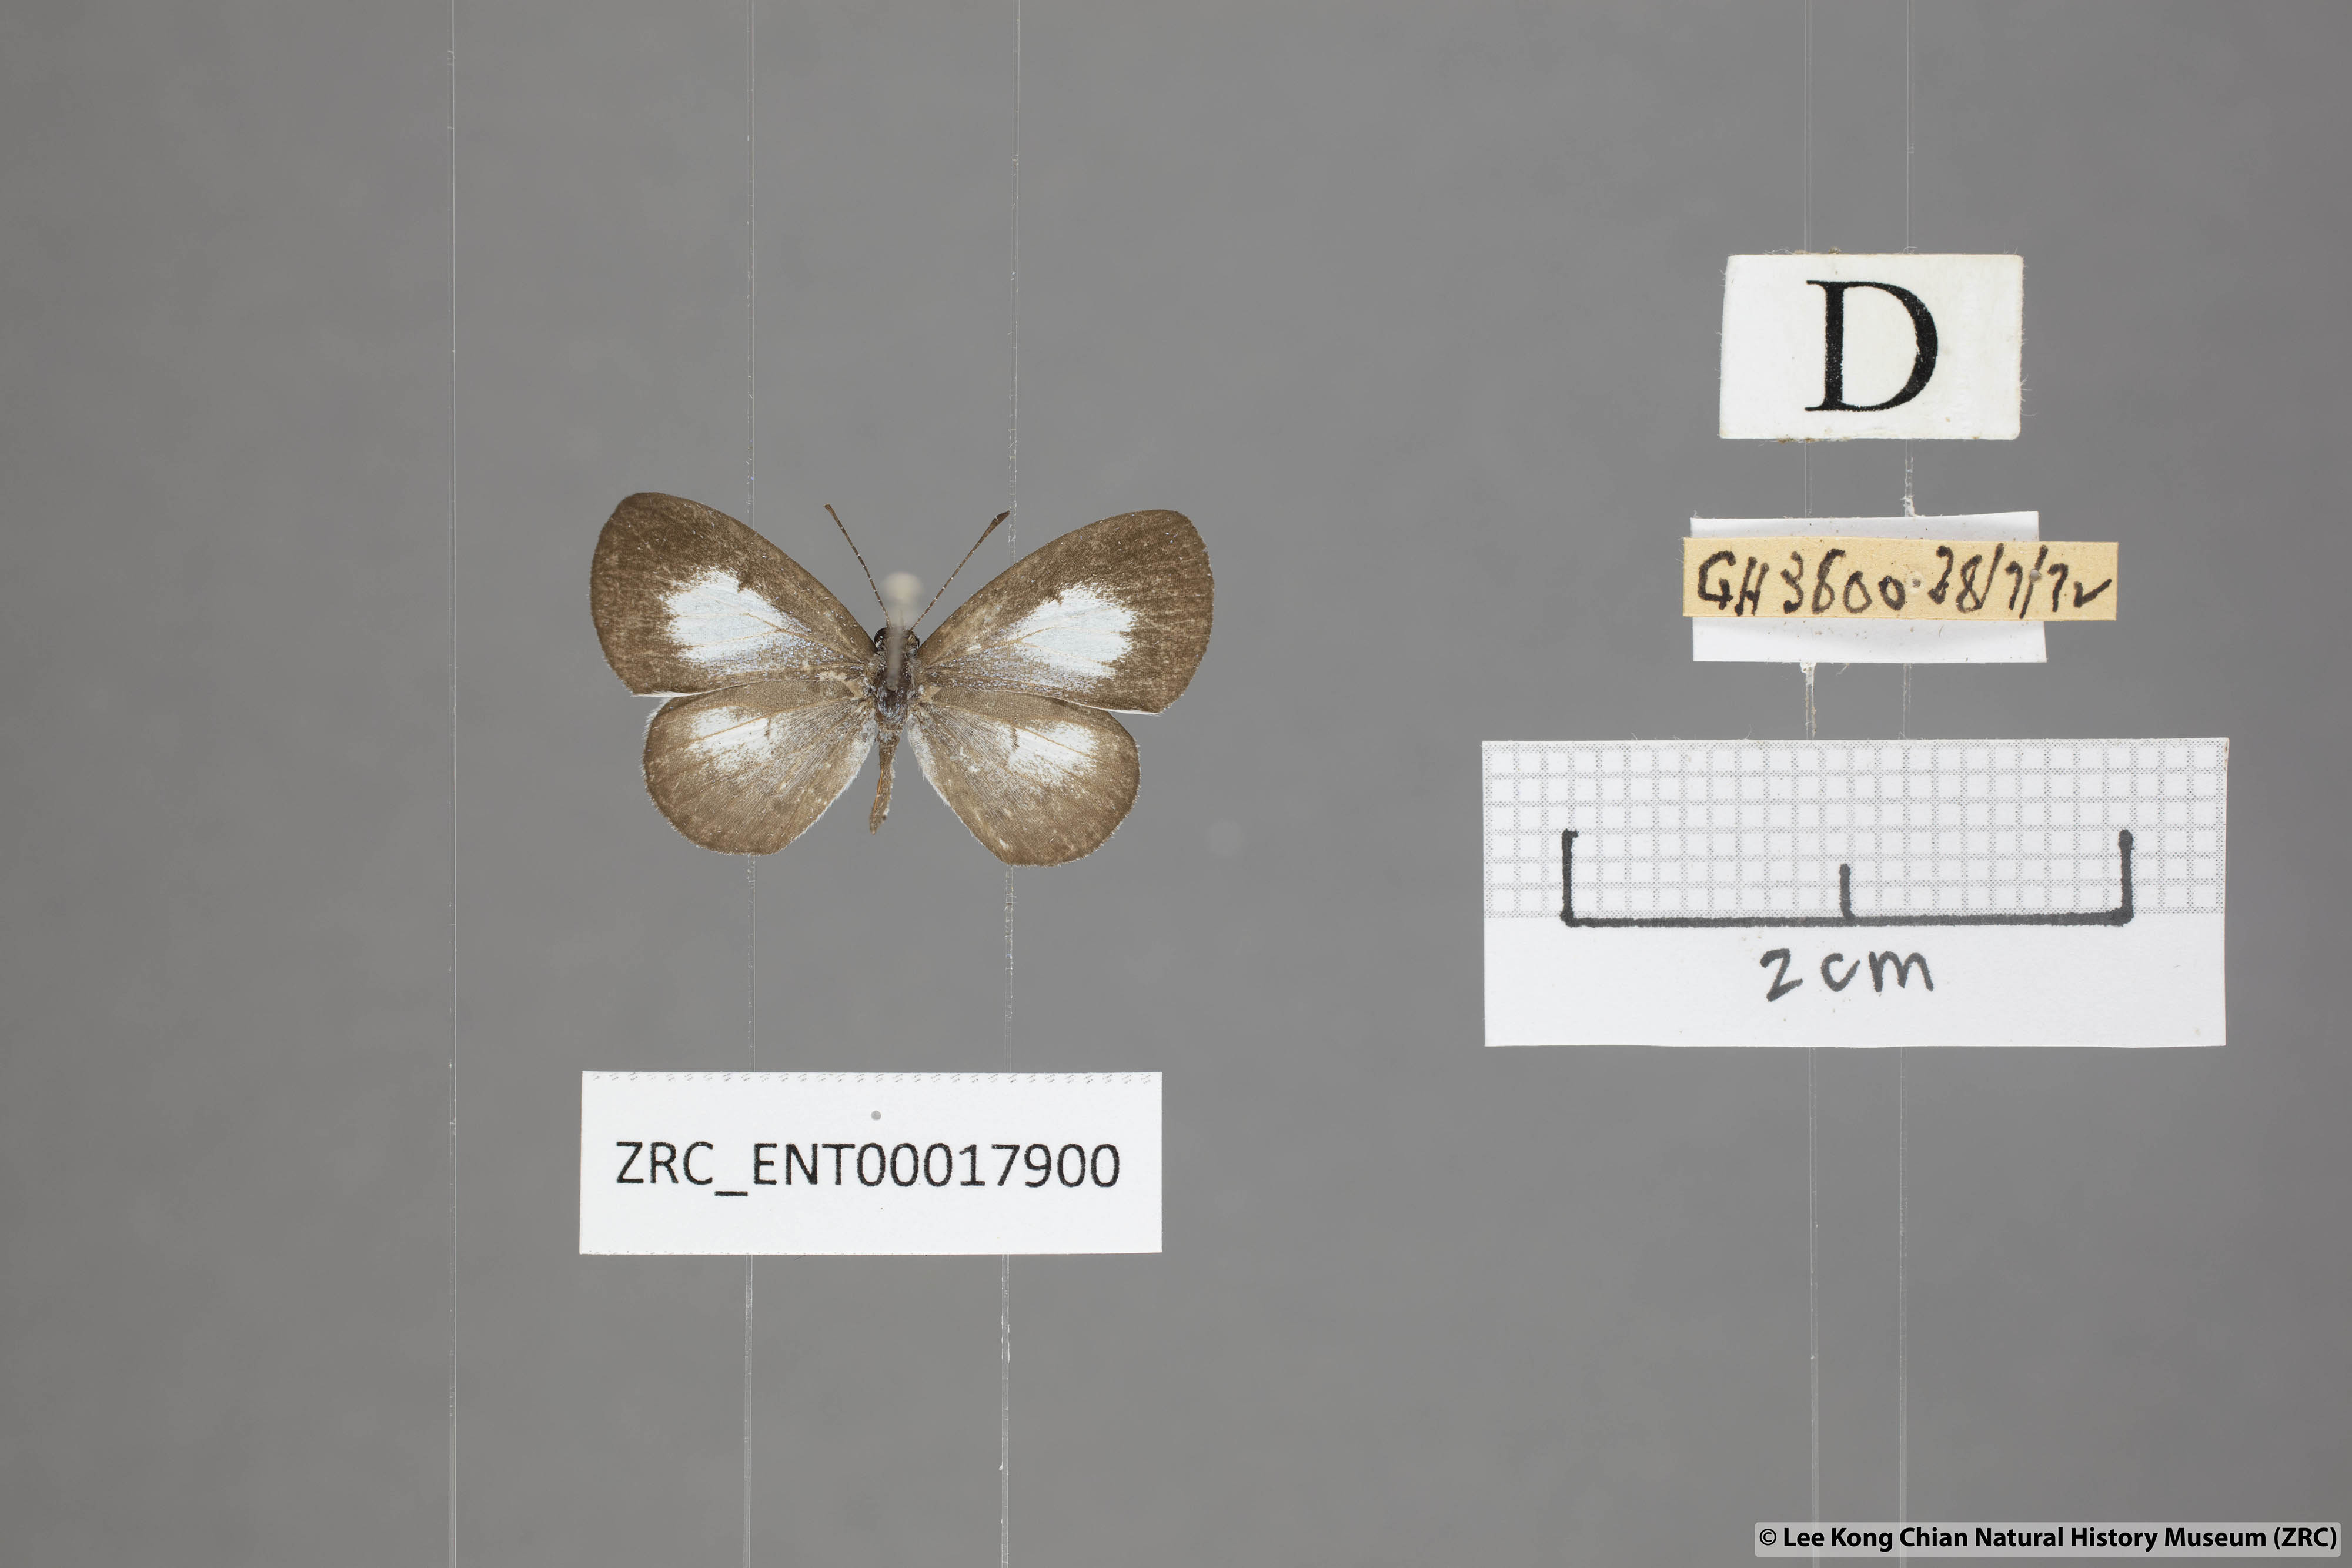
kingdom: Animalia
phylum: Arthropoda
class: Insecta
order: Lepidoptera
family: Lycaenidae
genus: Oreolyce
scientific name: Oreolyce
